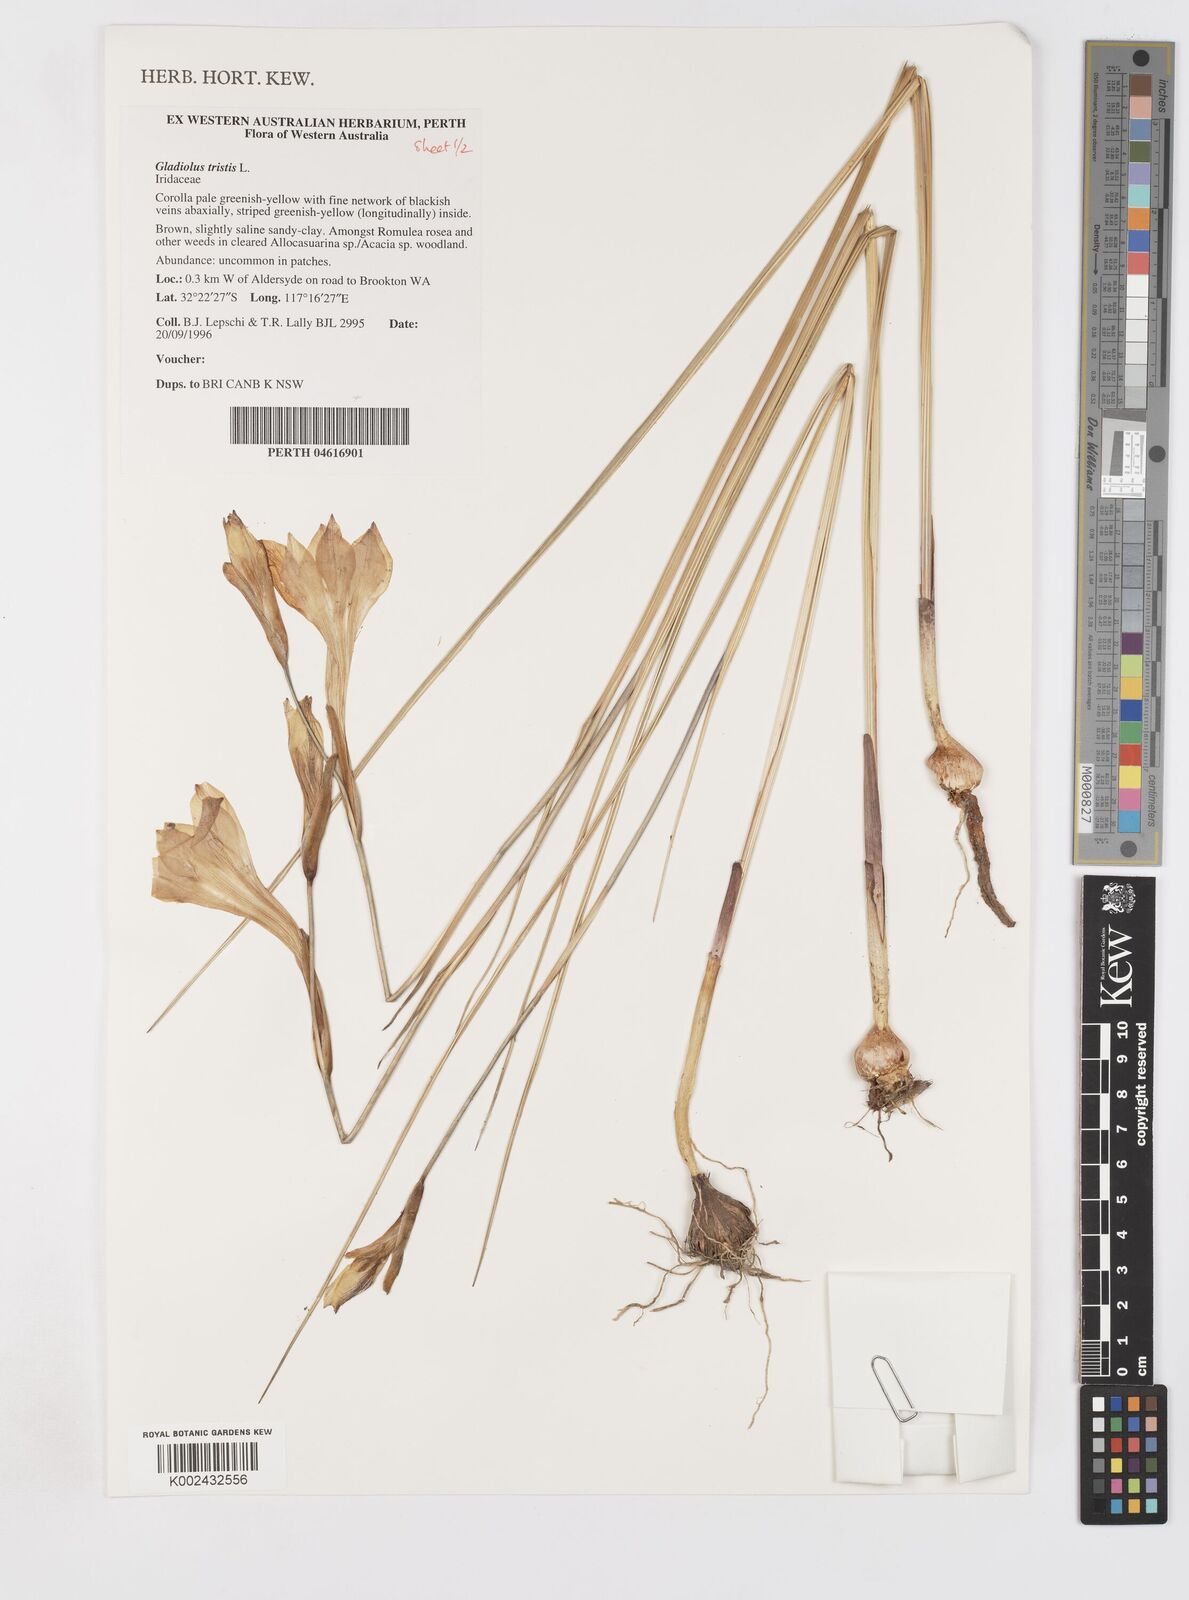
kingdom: Plantae
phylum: Tracheophyta
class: Liliopsida
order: Asparagales
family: Iridaceae
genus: Gladiolus
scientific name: Gladiolus tristis
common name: Ever-flowering gladiolus
